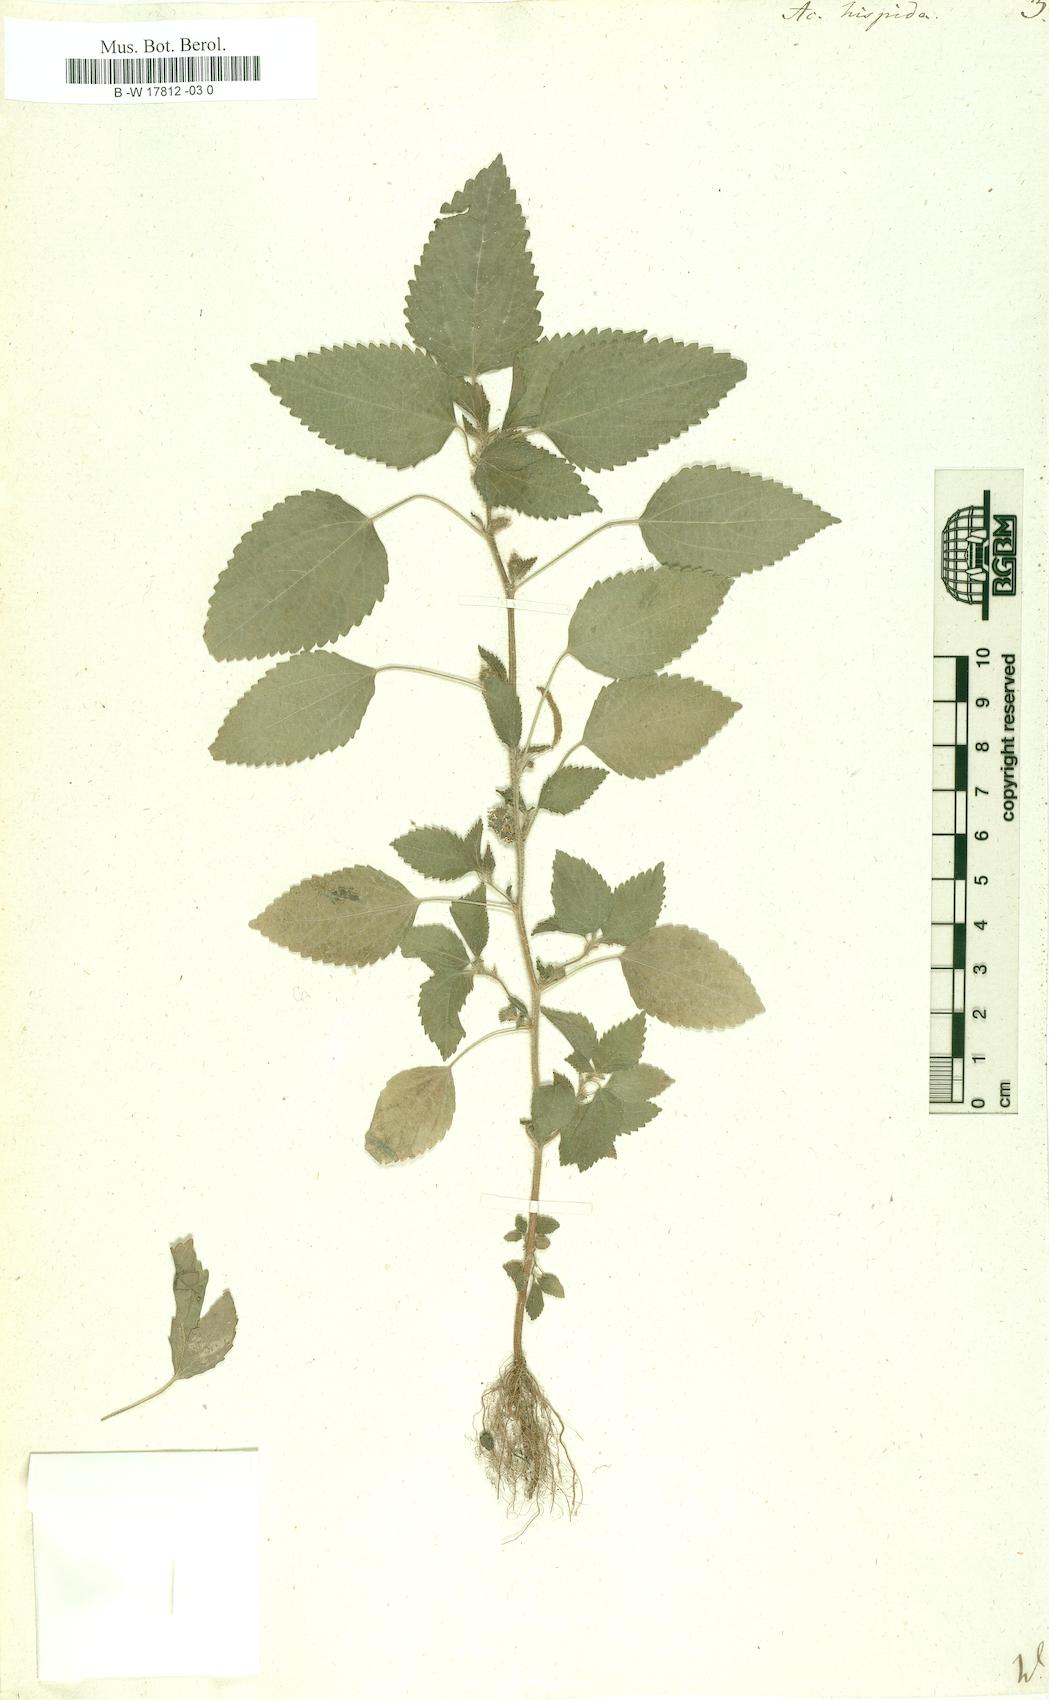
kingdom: Plantae
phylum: Tracheophyta
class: Magnoliopsida
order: Malpighiales
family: Euphorbiaceae
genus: Acalypha
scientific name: Acalypha hispida
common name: Chenilleplant
